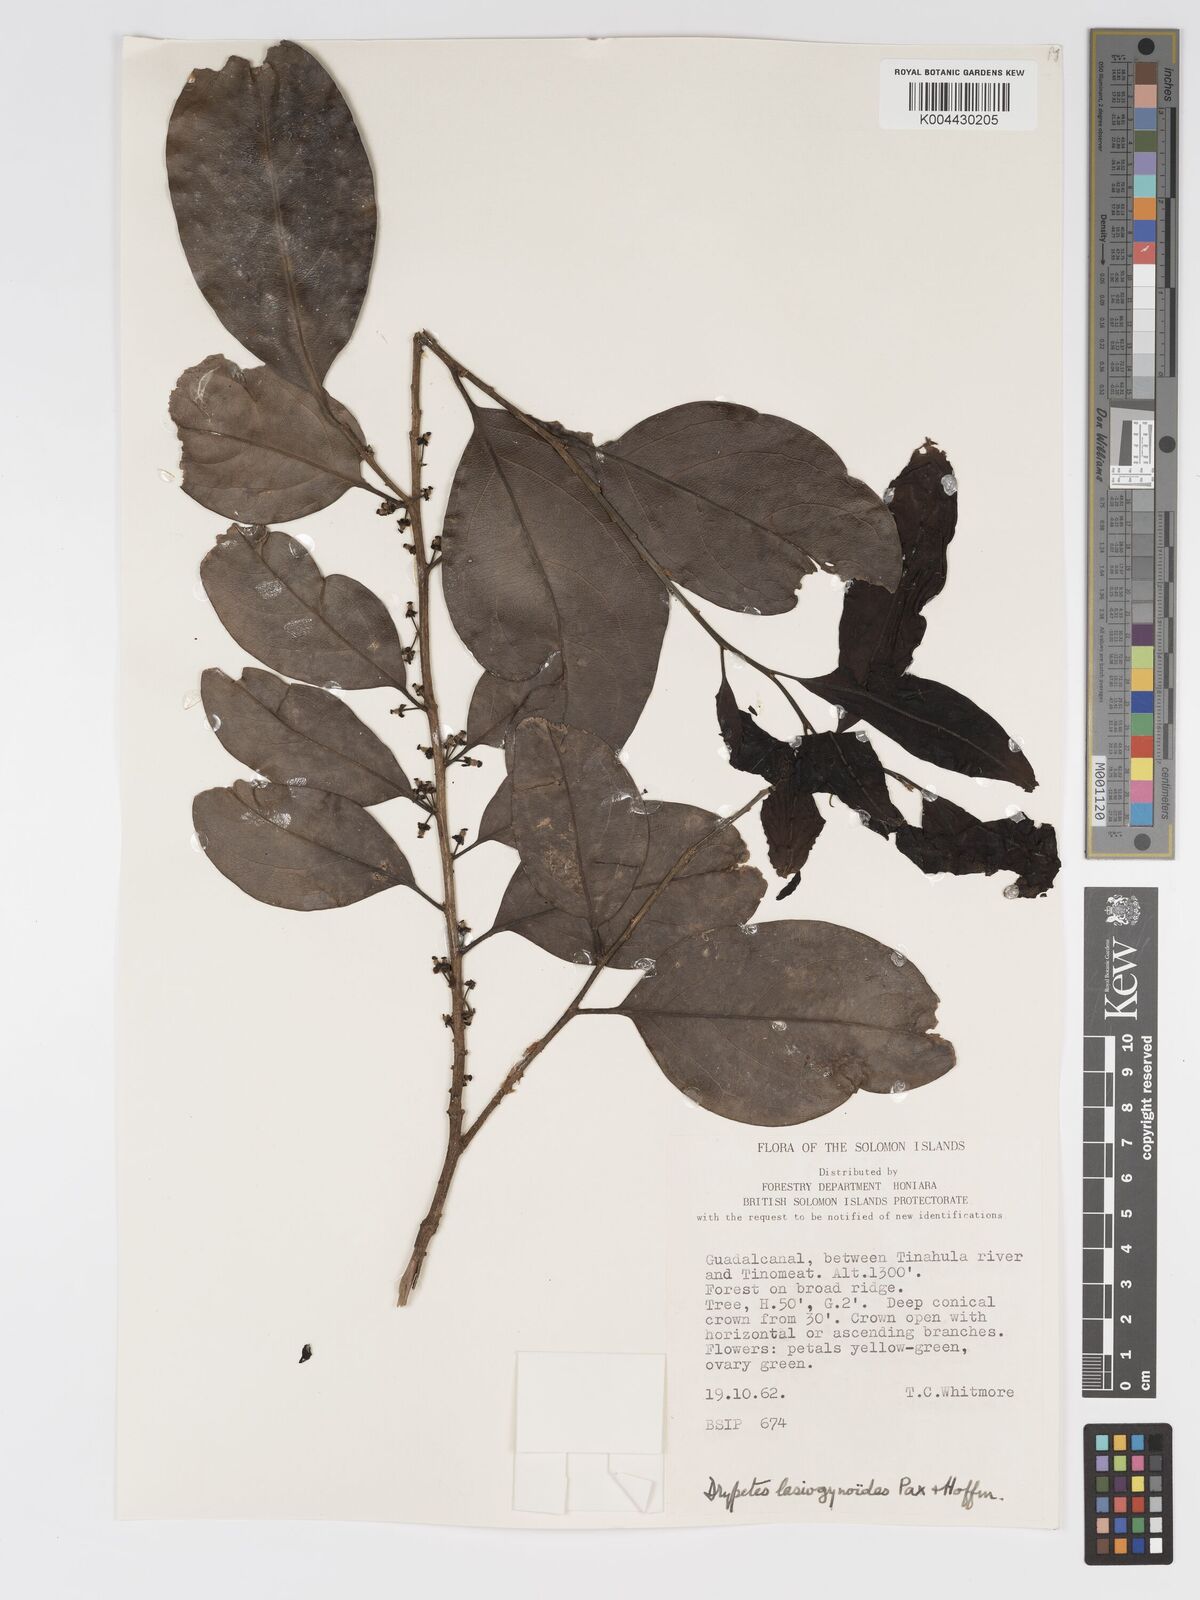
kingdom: Plantae
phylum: Tracheophyta
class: Magnoliopsida
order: Malpighiales
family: Putranjivaceae
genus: Drypetes
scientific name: Drypetes lasiogynoides
